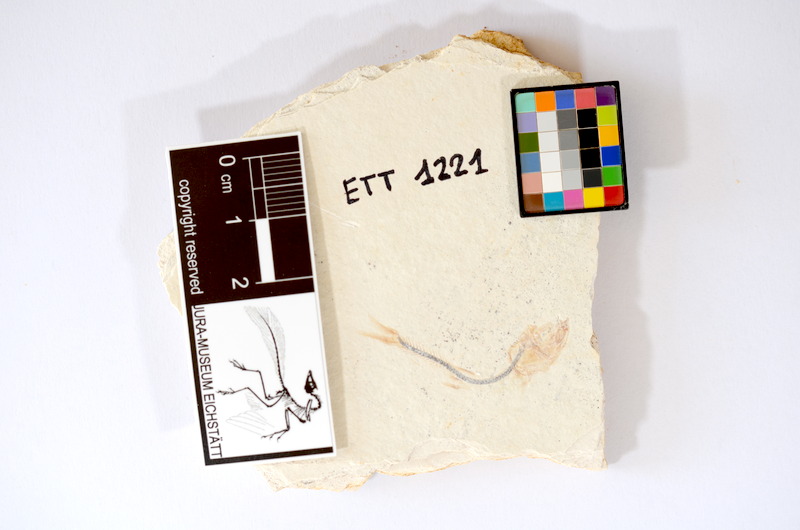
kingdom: Animalia
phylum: Chordata
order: Salmoniformes
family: Orthogonikleithridae
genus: Orthogonikleithrus
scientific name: Orthogonikleithrus hoelli
